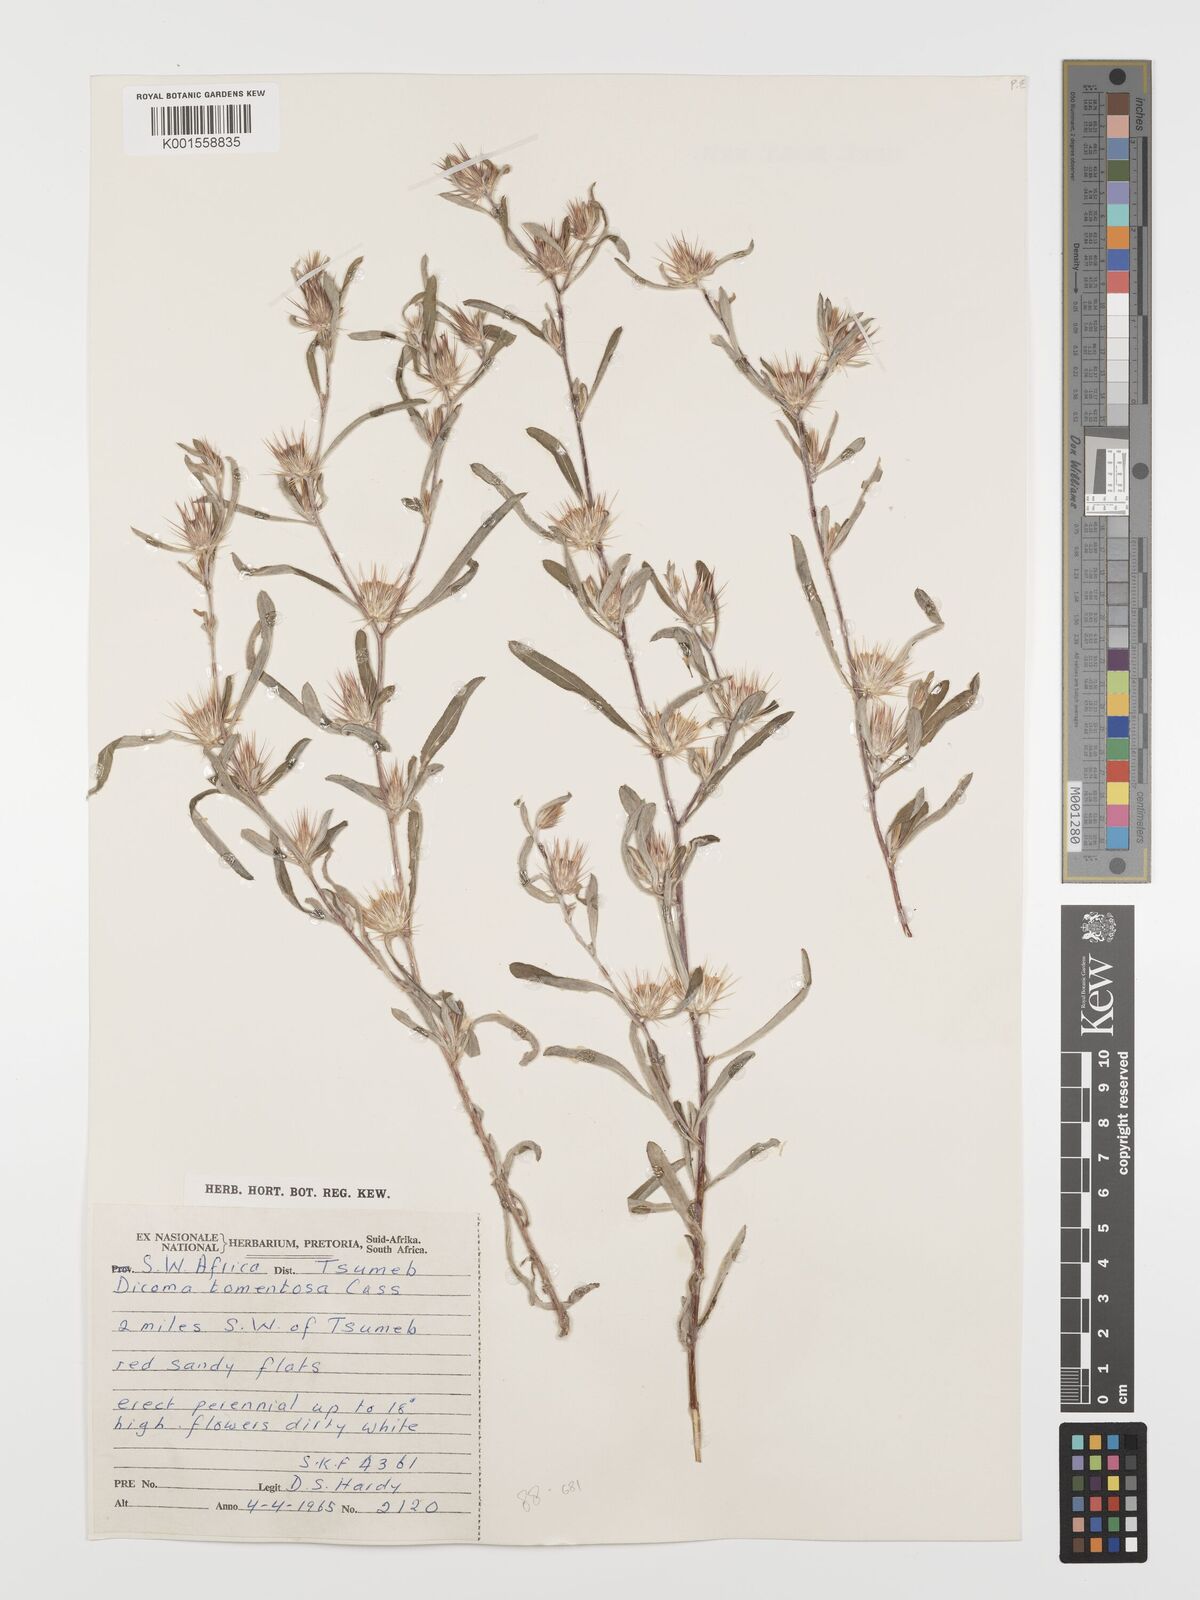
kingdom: Plantae
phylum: Tracheophyta
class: Magnoliopsida
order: Asterales
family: Asteraceae
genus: Dicoma
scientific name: Dicoma tomentosa
